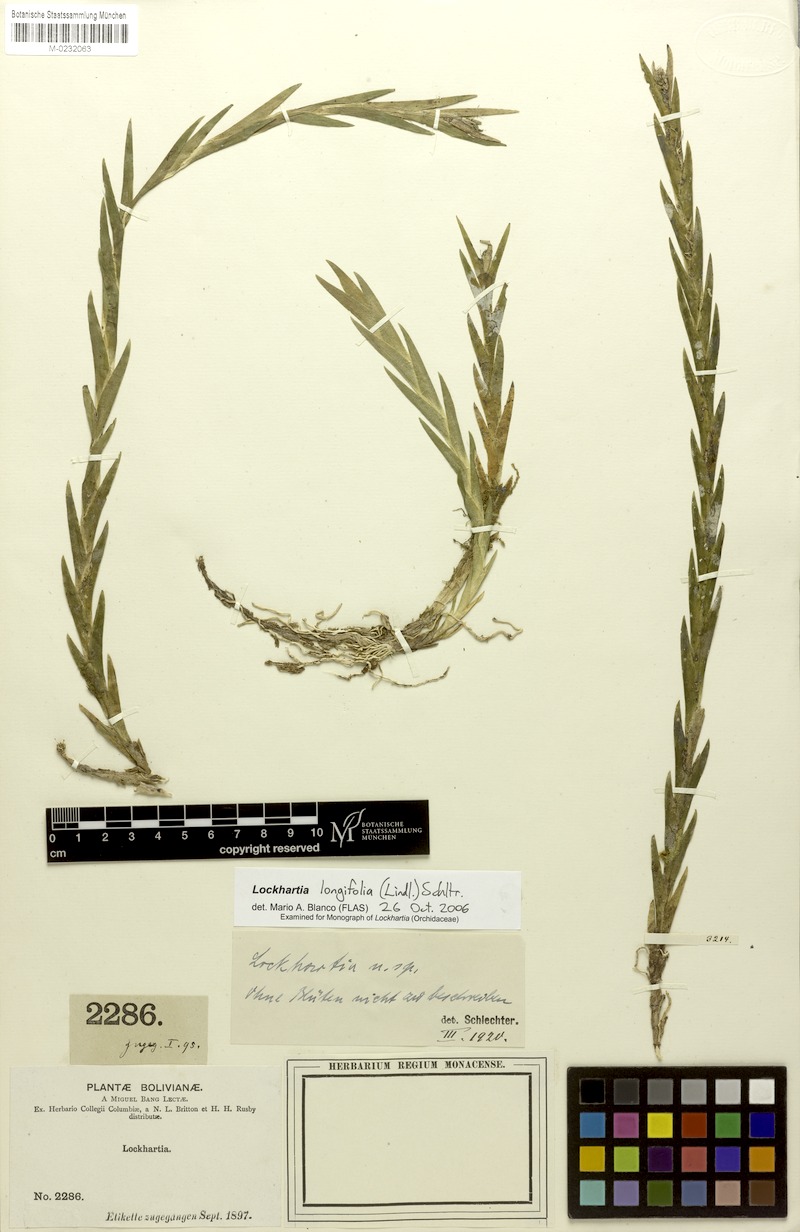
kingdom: Plantae
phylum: Tracheophyta
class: Liliopsida
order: Asparagales
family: Orchidaceae
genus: Lockhartia
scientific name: Lockhartia longifolia
